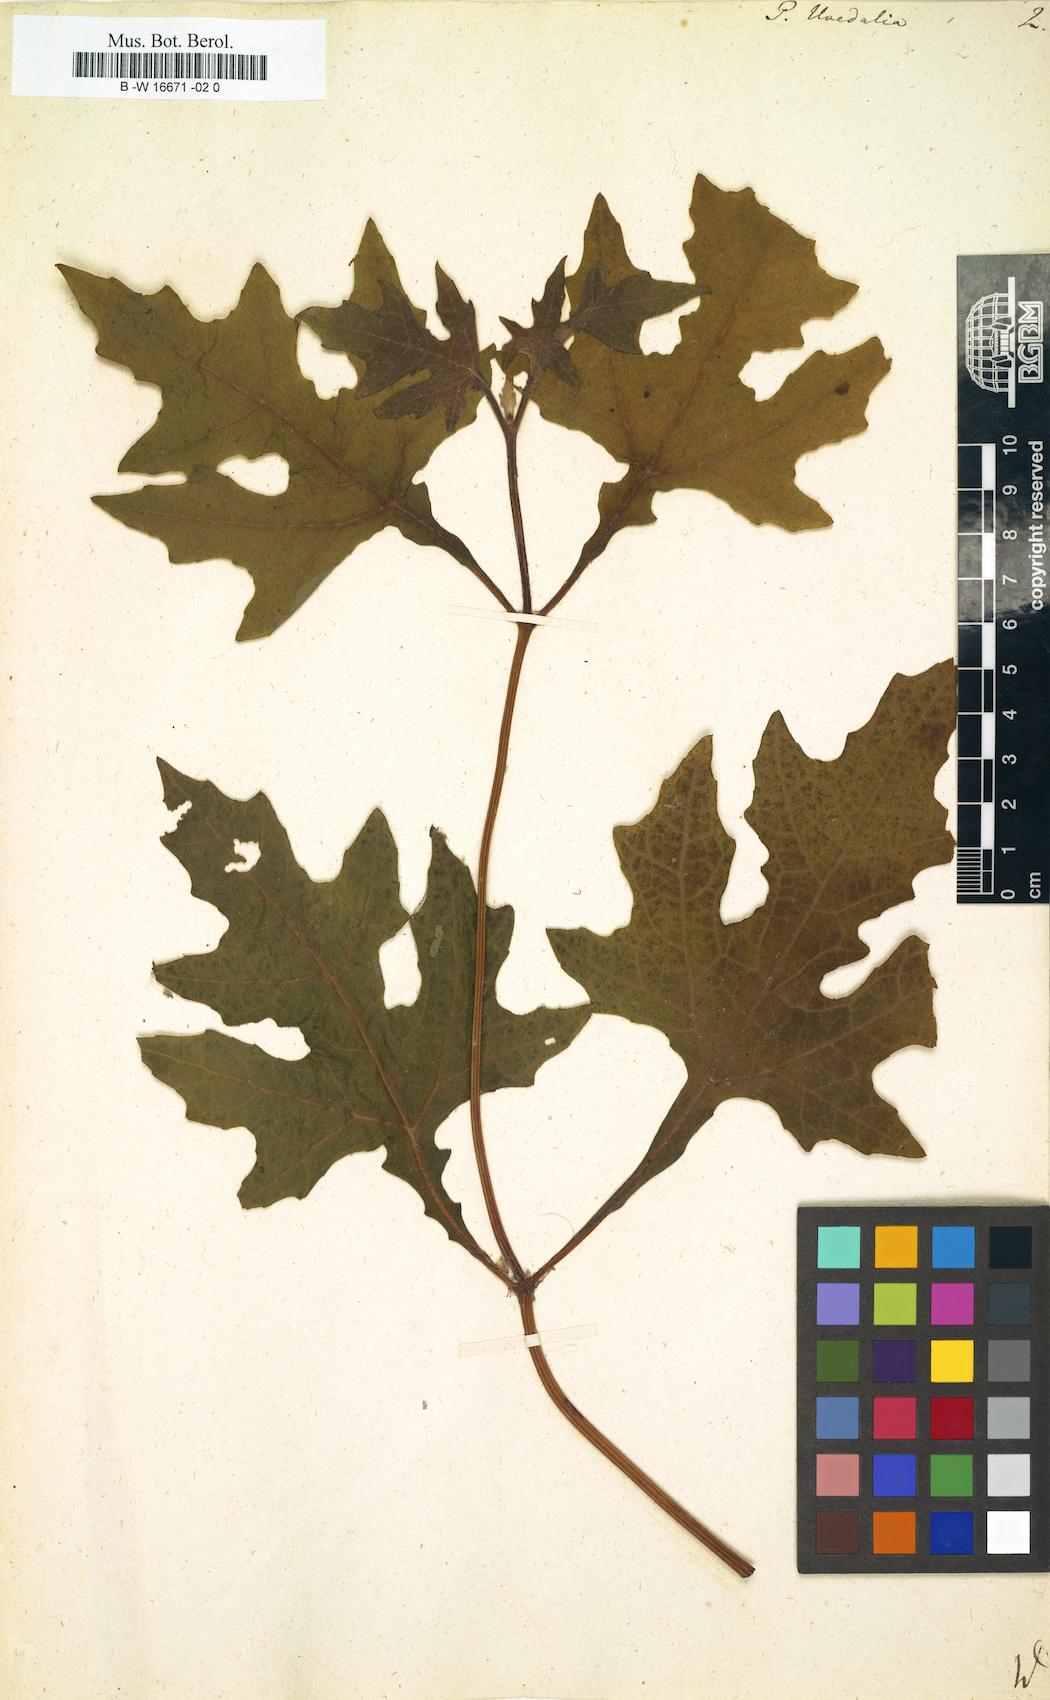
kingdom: Plantae
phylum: Tracheophyta
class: Magnoliopsida
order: Asterales
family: Asteraceae
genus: Smallanthus
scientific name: Smallanthus uvedalia
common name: Bear's-foot
